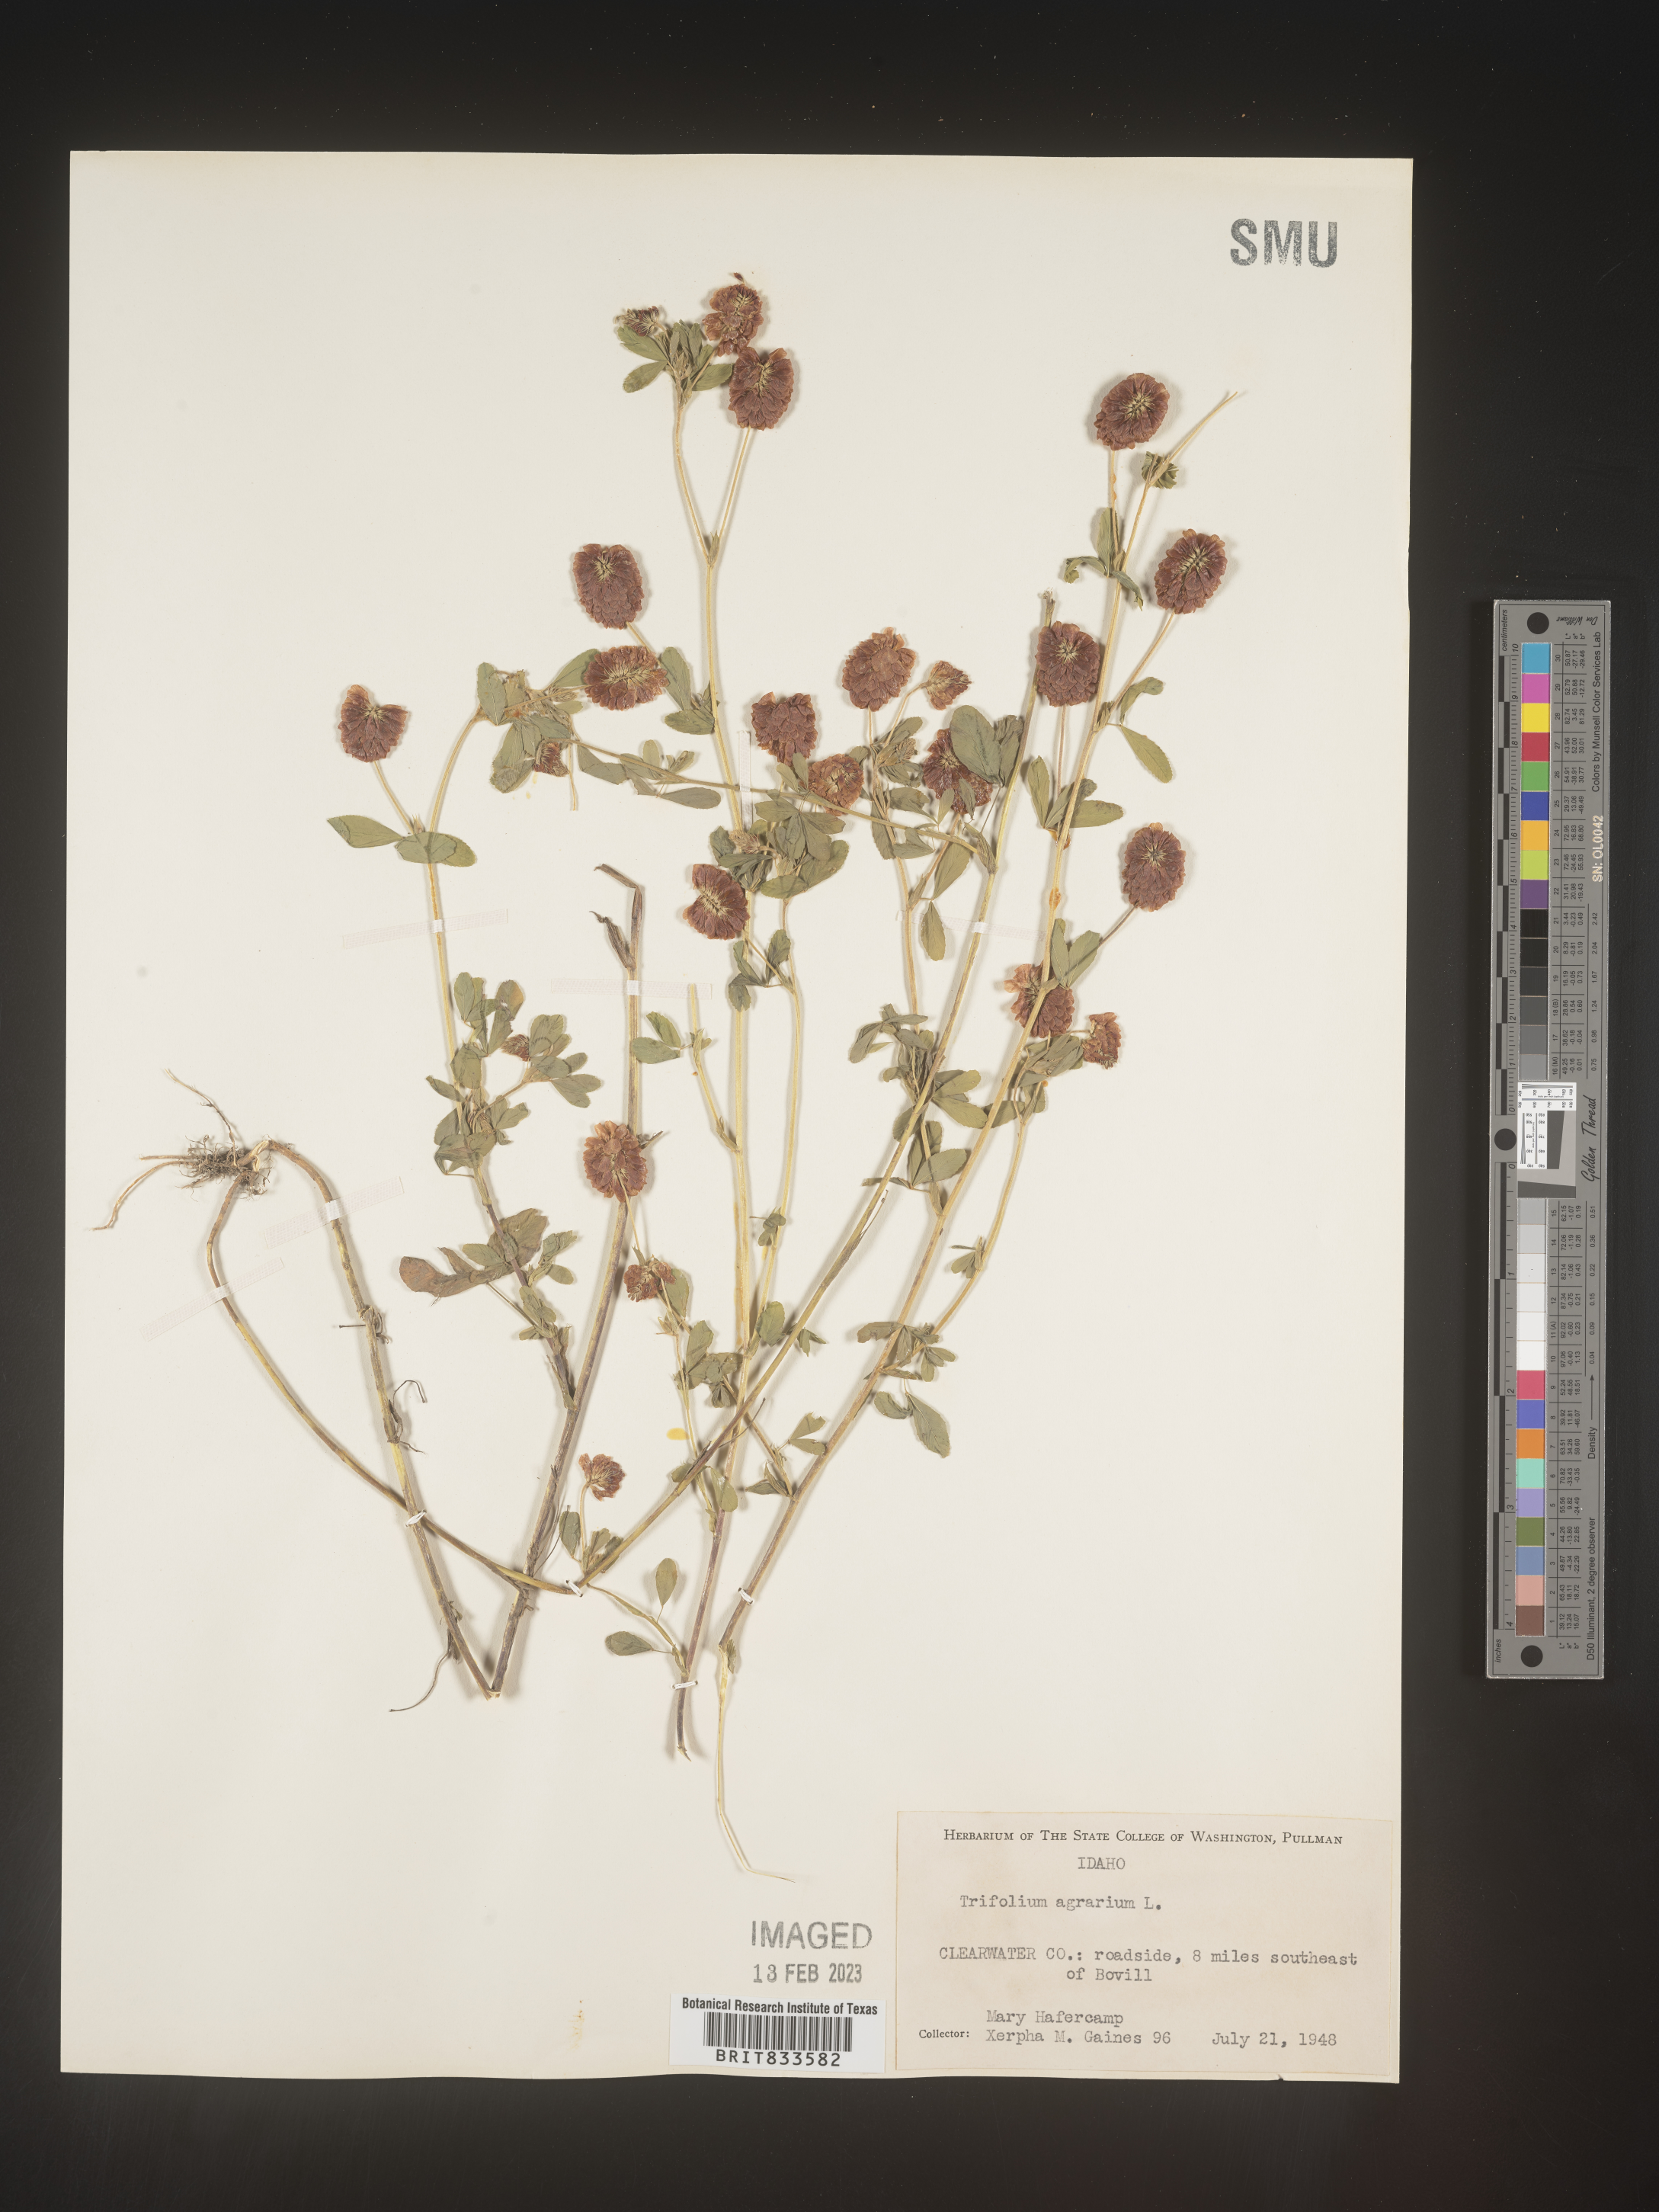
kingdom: Plantae
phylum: Tracheophyta
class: Magnoliopsida
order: Fabales
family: Fabaceae
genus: Trifolium
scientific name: Trifolium agrarium
